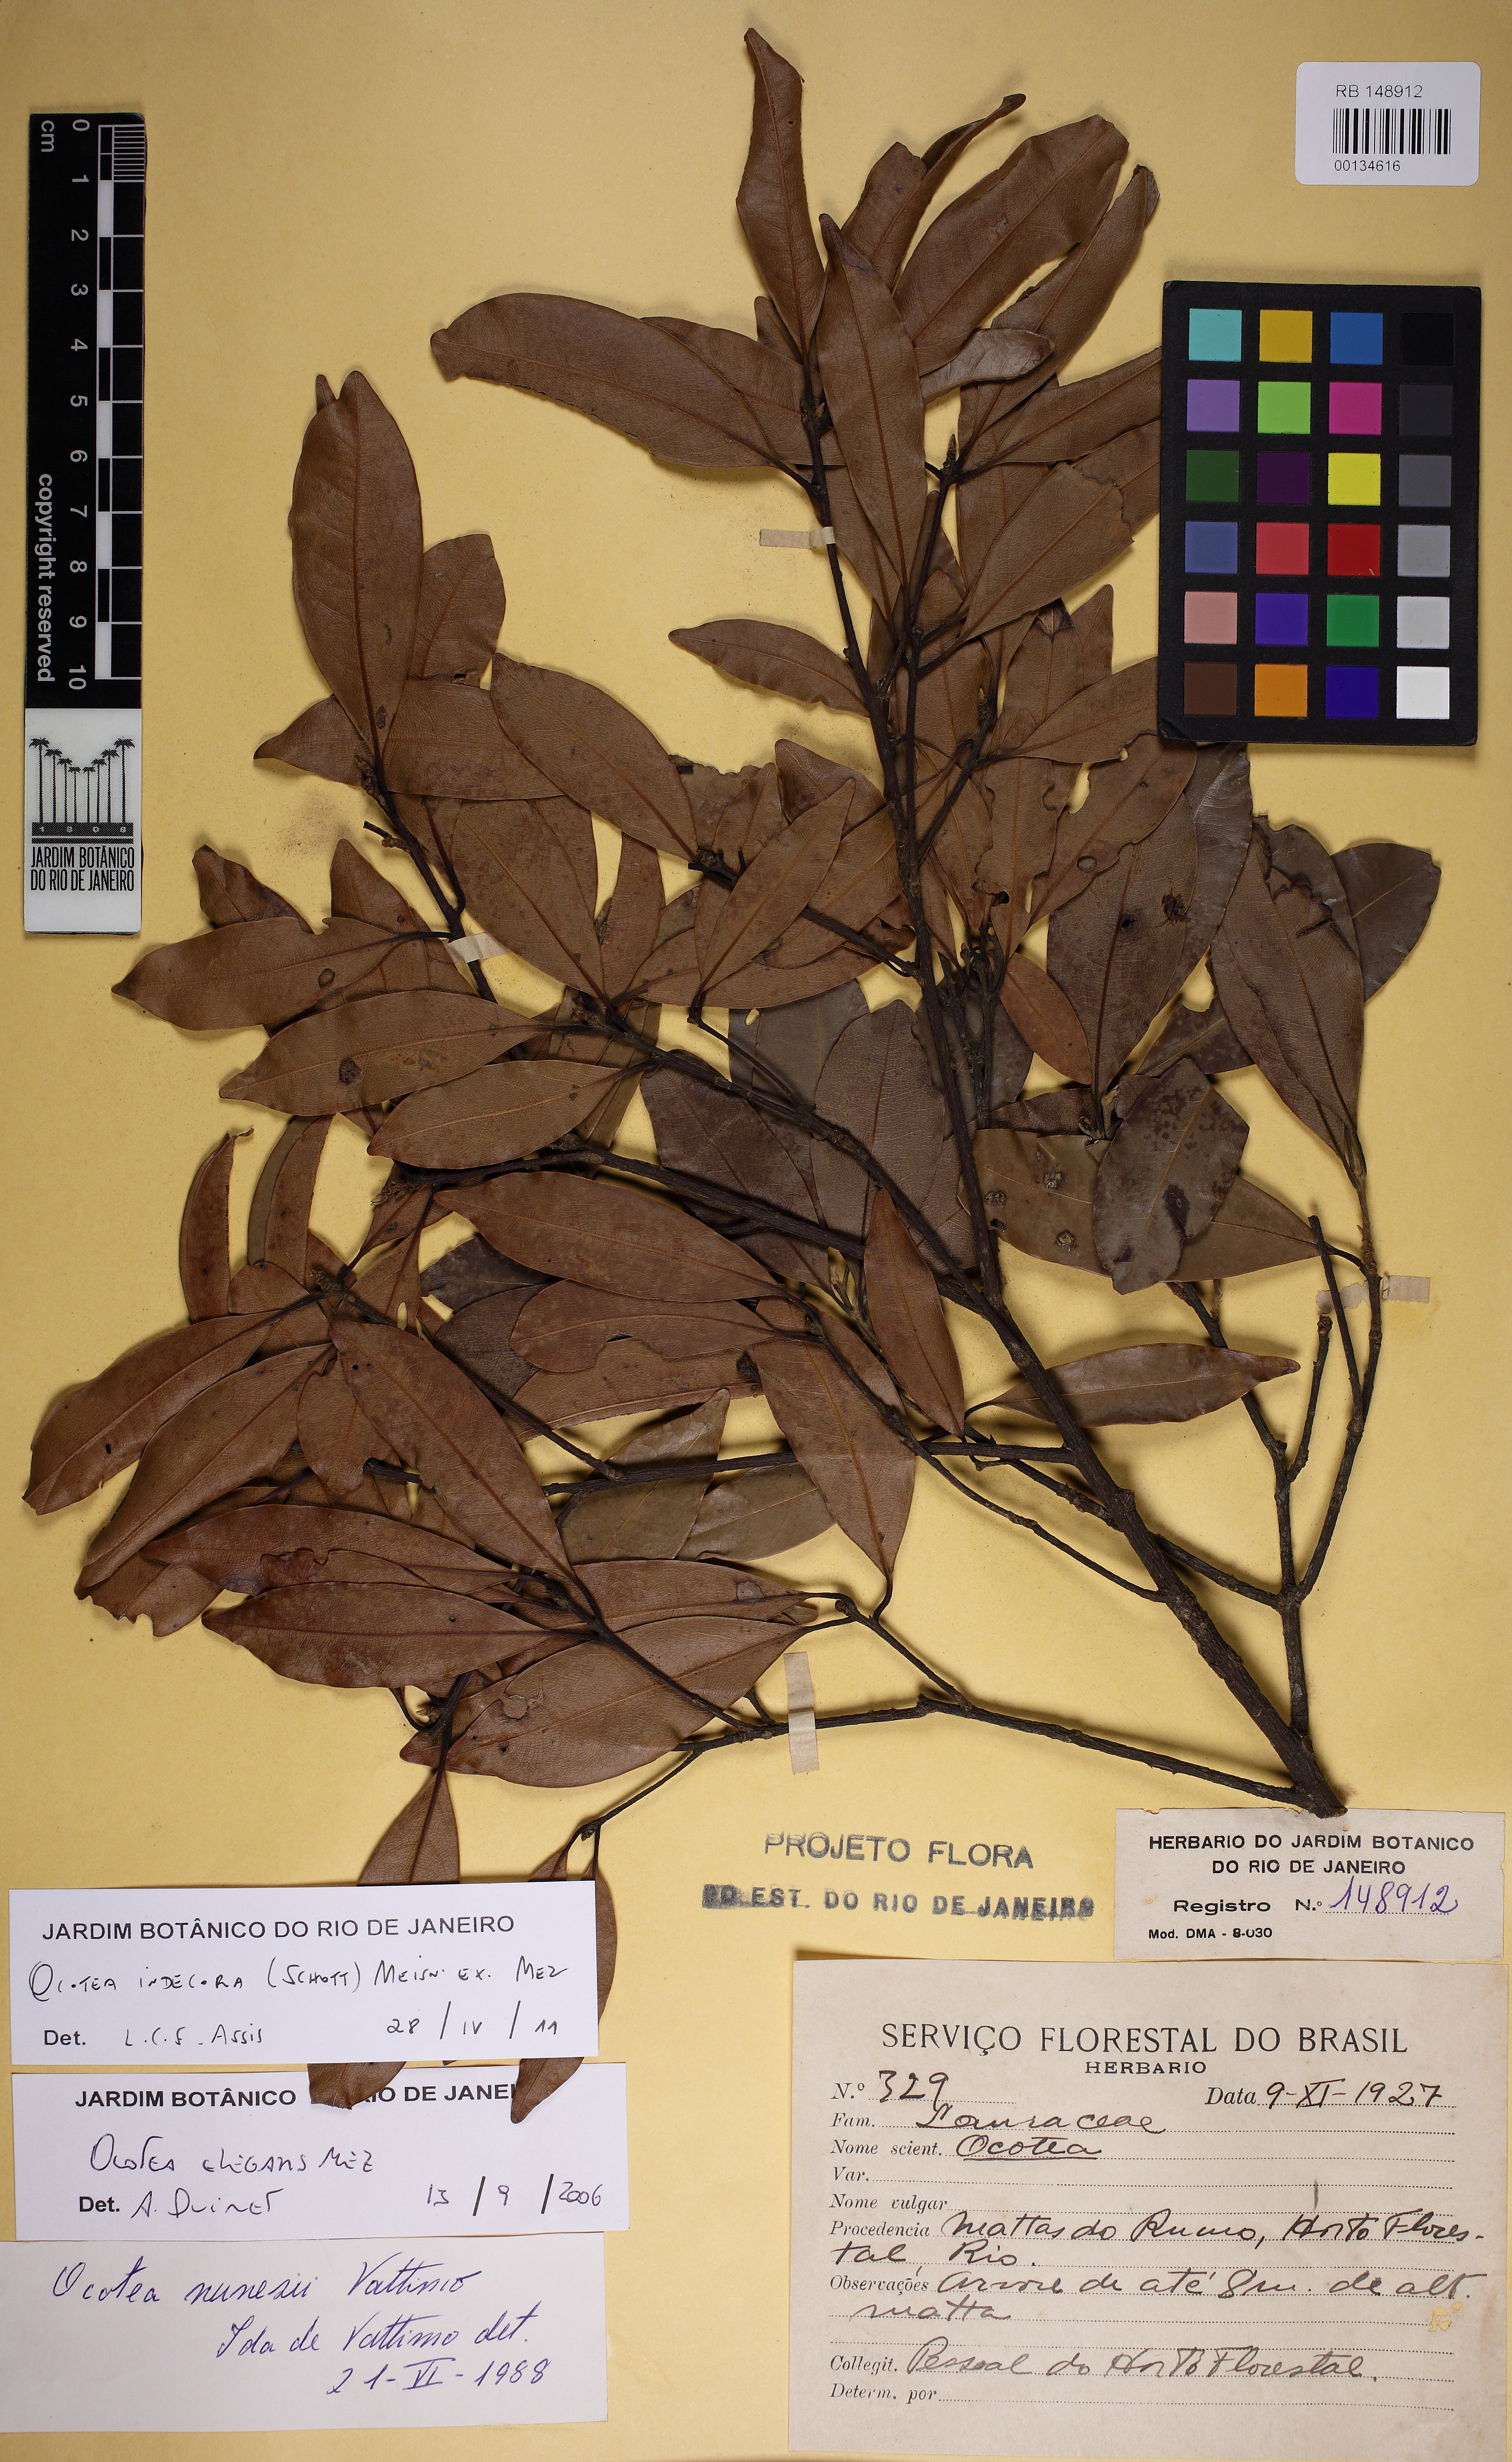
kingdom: Plantae
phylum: Tracheophyta
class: Magnoliopsida
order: Laurales
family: Lauraceae
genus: Mespilodaphne
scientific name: Mespilodaphne indecora
